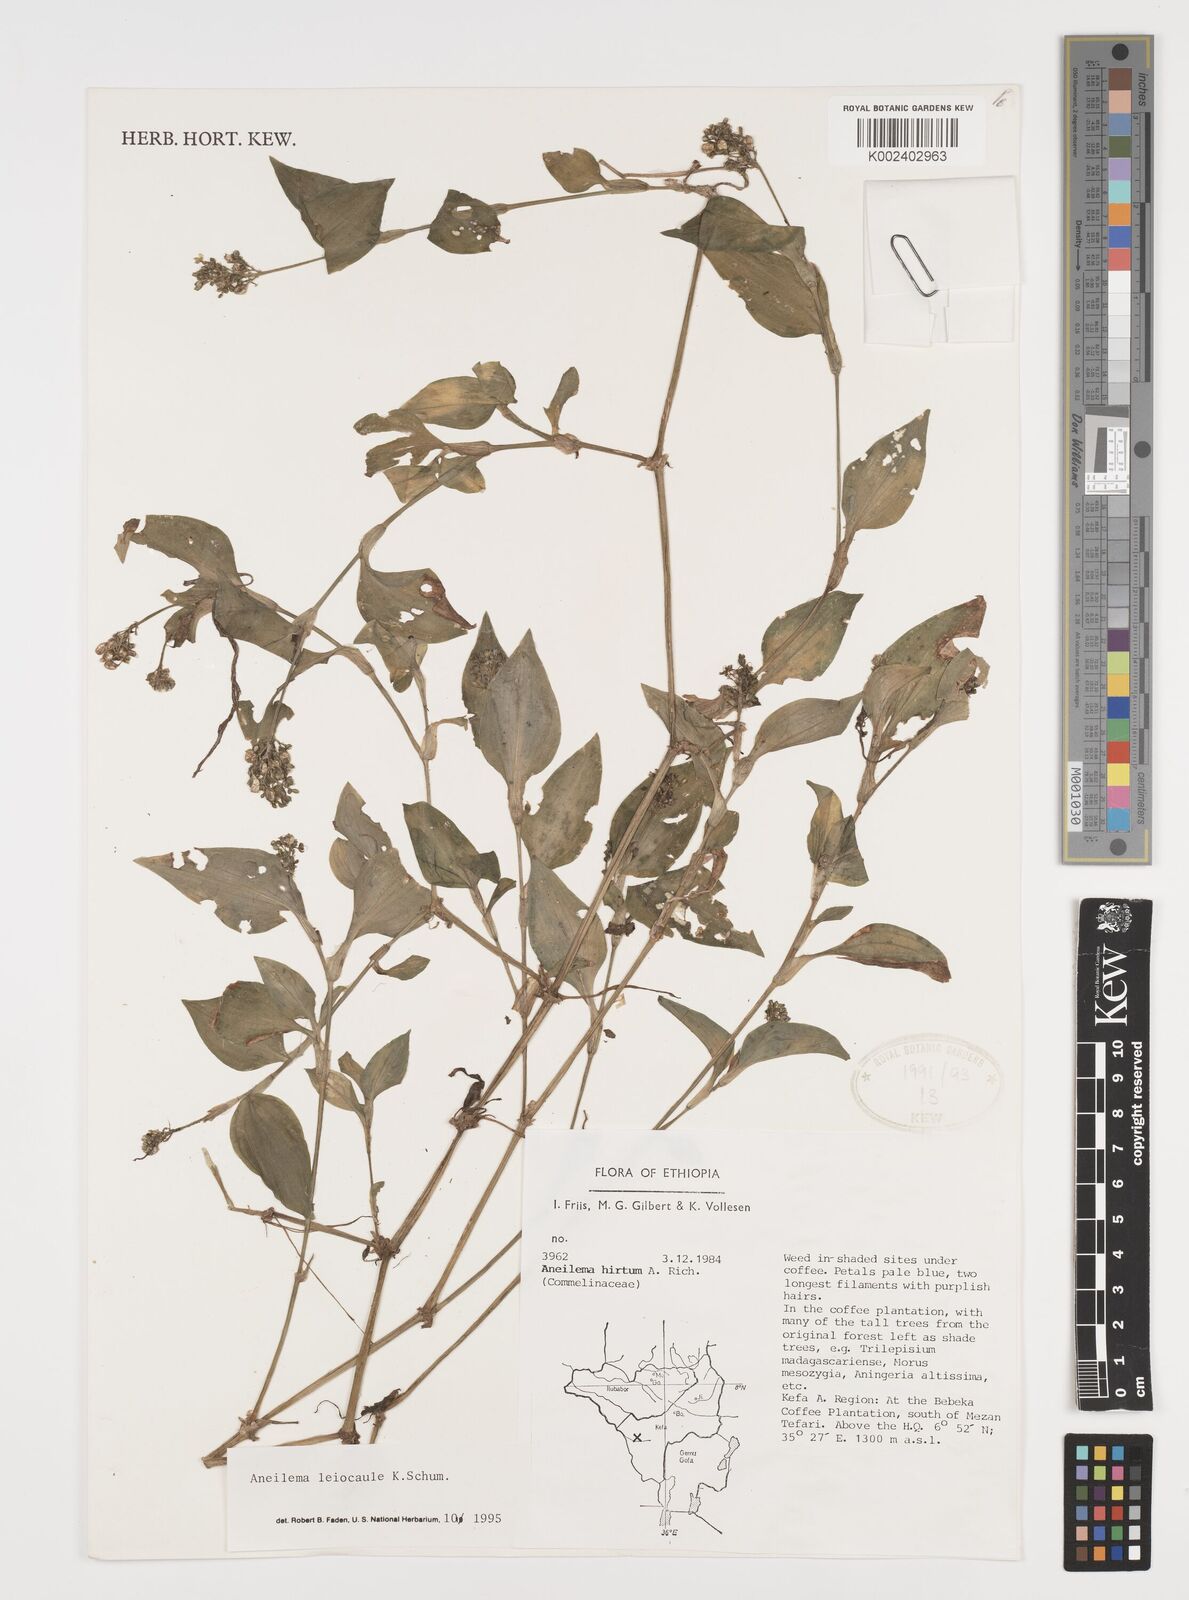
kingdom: Plantae
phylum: Tracheophyta
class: Liliopsida
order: Commelinales
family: Commelinaceae
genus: Aneilema
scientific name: Aneilema leiocaule
